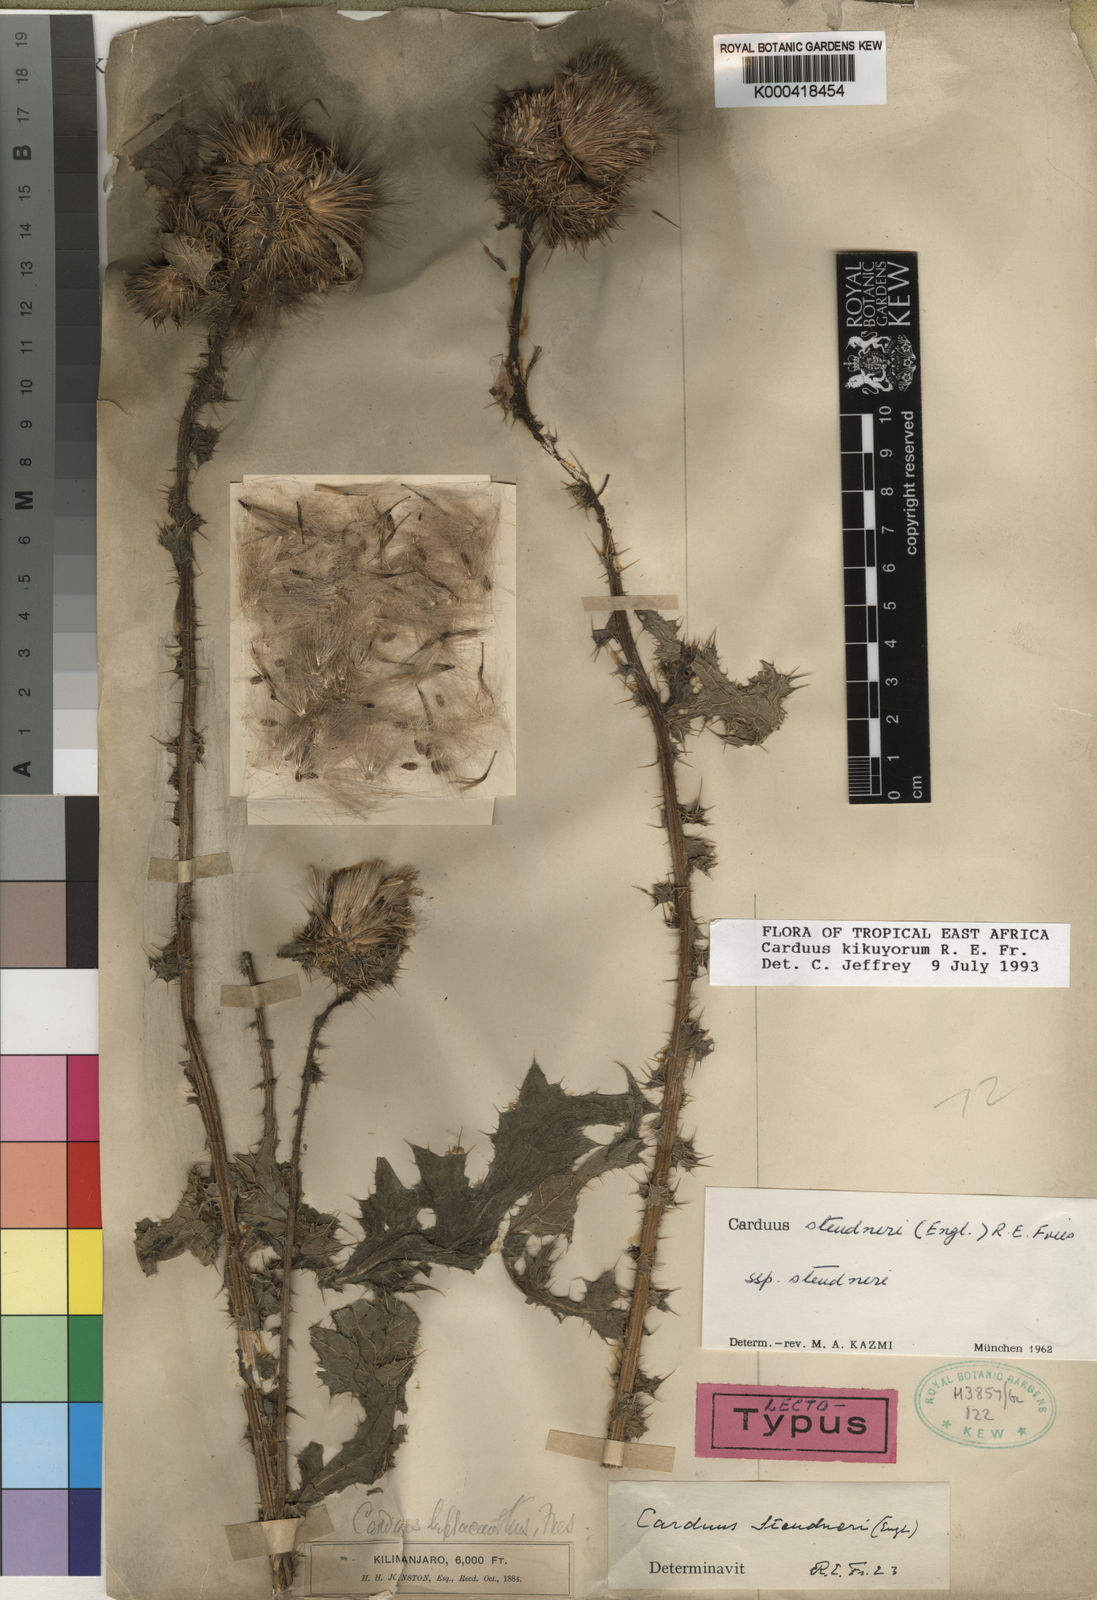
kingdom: Plantae
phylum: Tracheophyta
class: Magnoliopsida
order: Asterales
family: Asteraceae
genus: Carduus
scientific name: Carduus nyassanus
